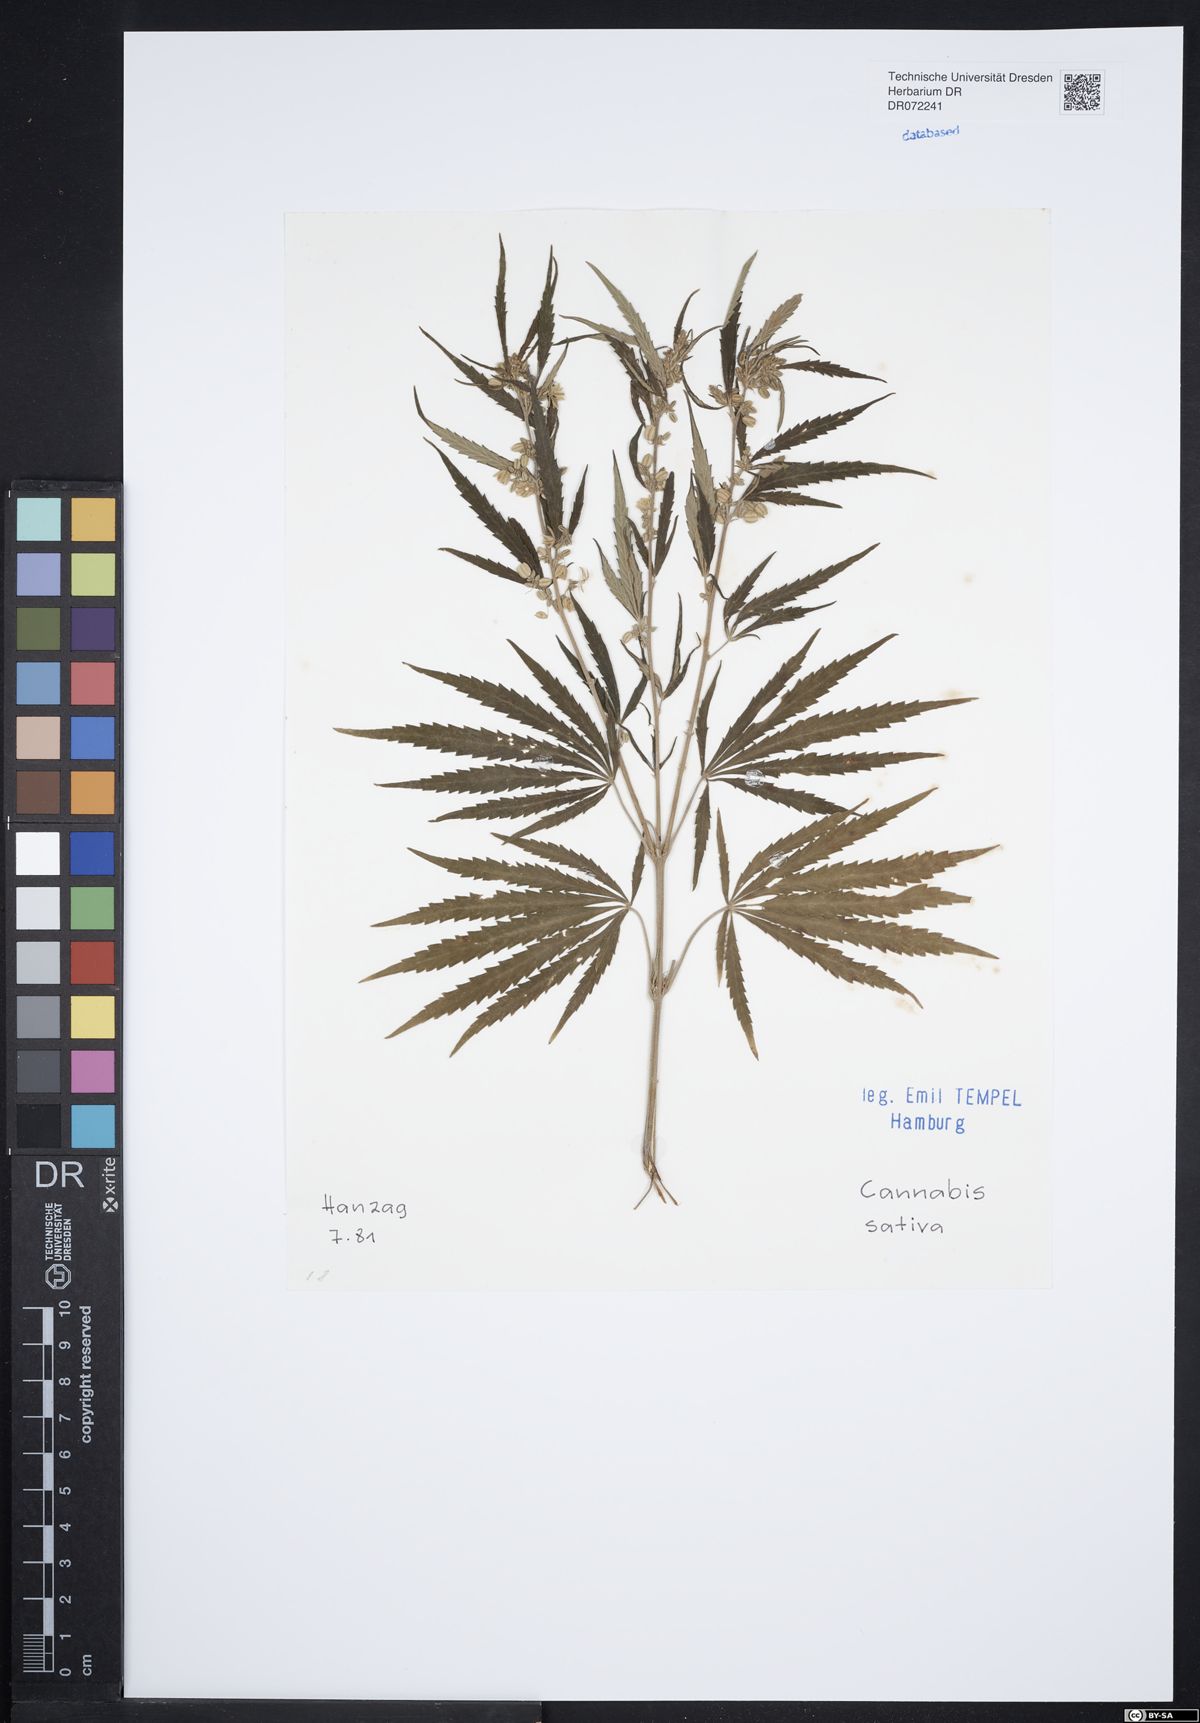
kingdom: Plantae
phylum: Tracheophyta
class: Magnoliopsida
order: Rosales
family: Cannabaceae
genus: Cannabis
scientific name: Cannabis sativa
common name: Hemp
